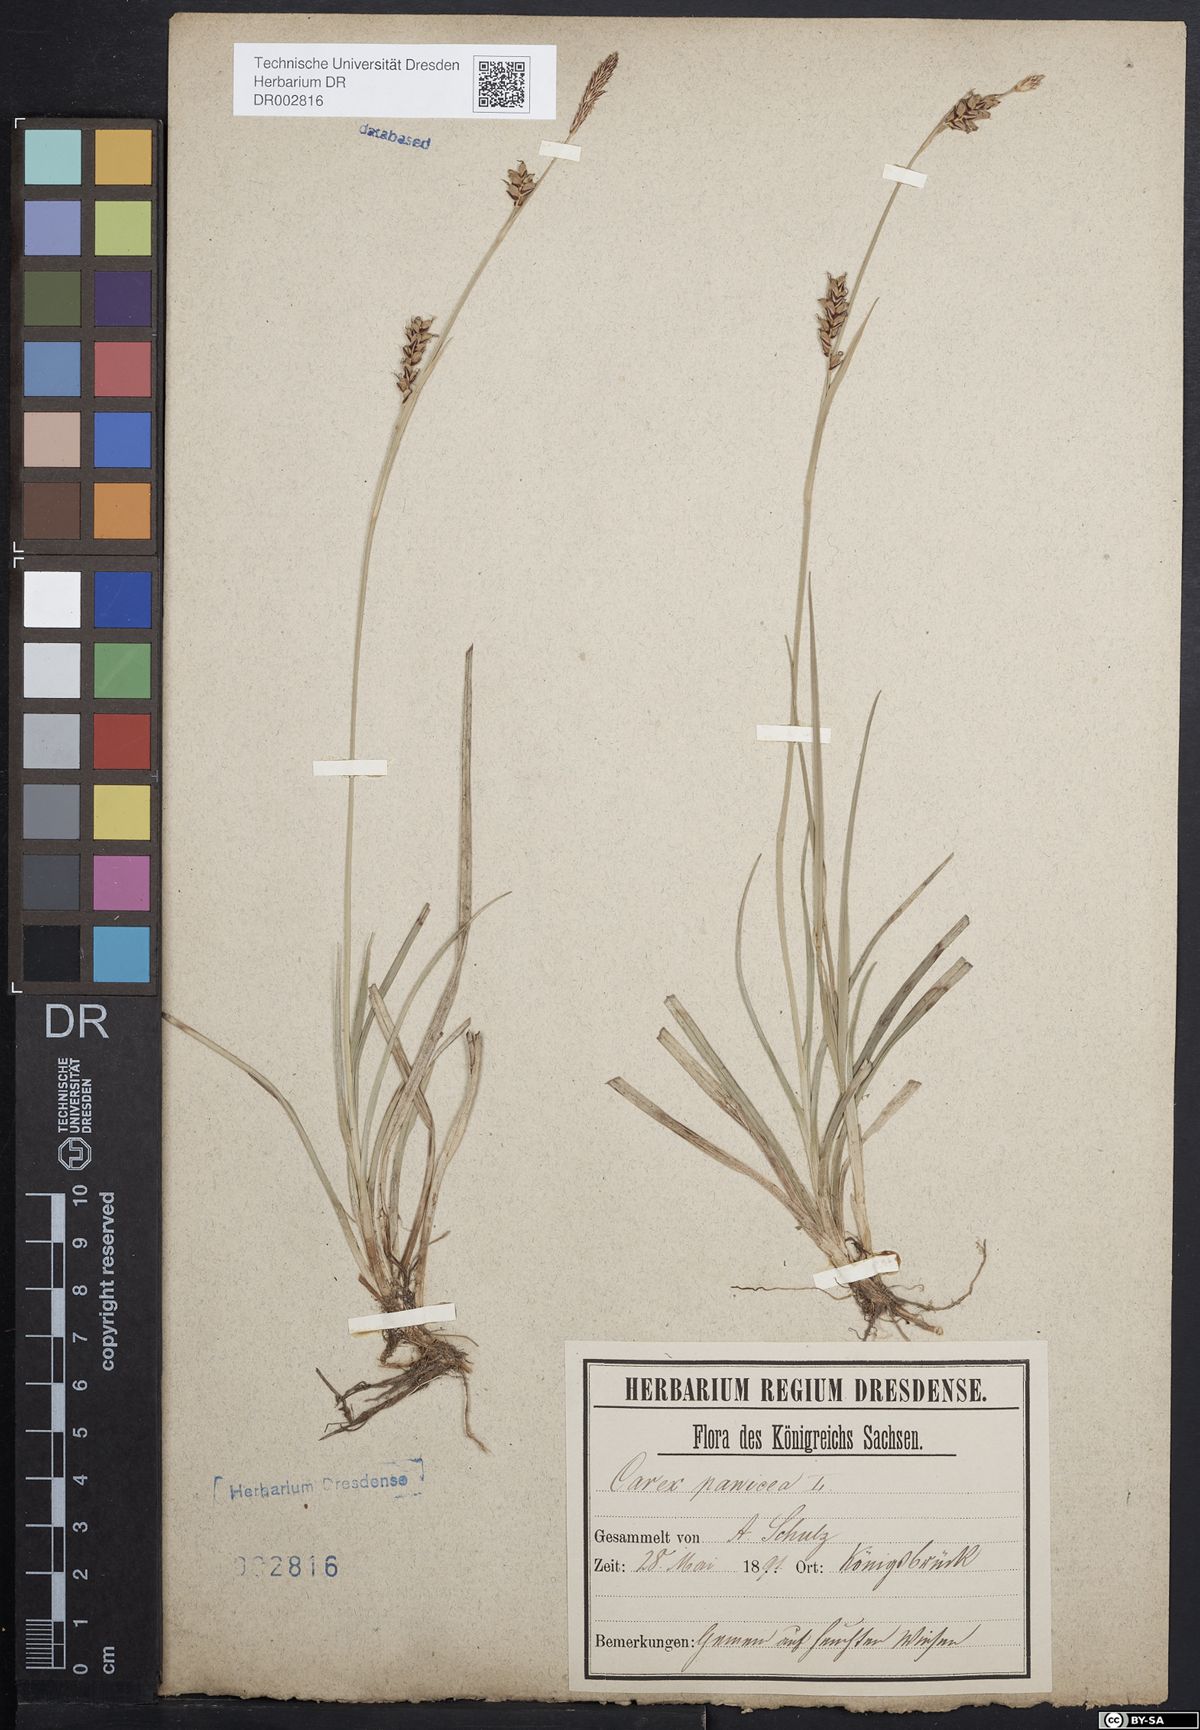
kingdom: Plantae
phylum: Tracheophyta
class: Liliopsida
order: Poales
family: Cyperaceae
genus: Carex
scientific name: Carex panicea
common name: Carnation sedge
